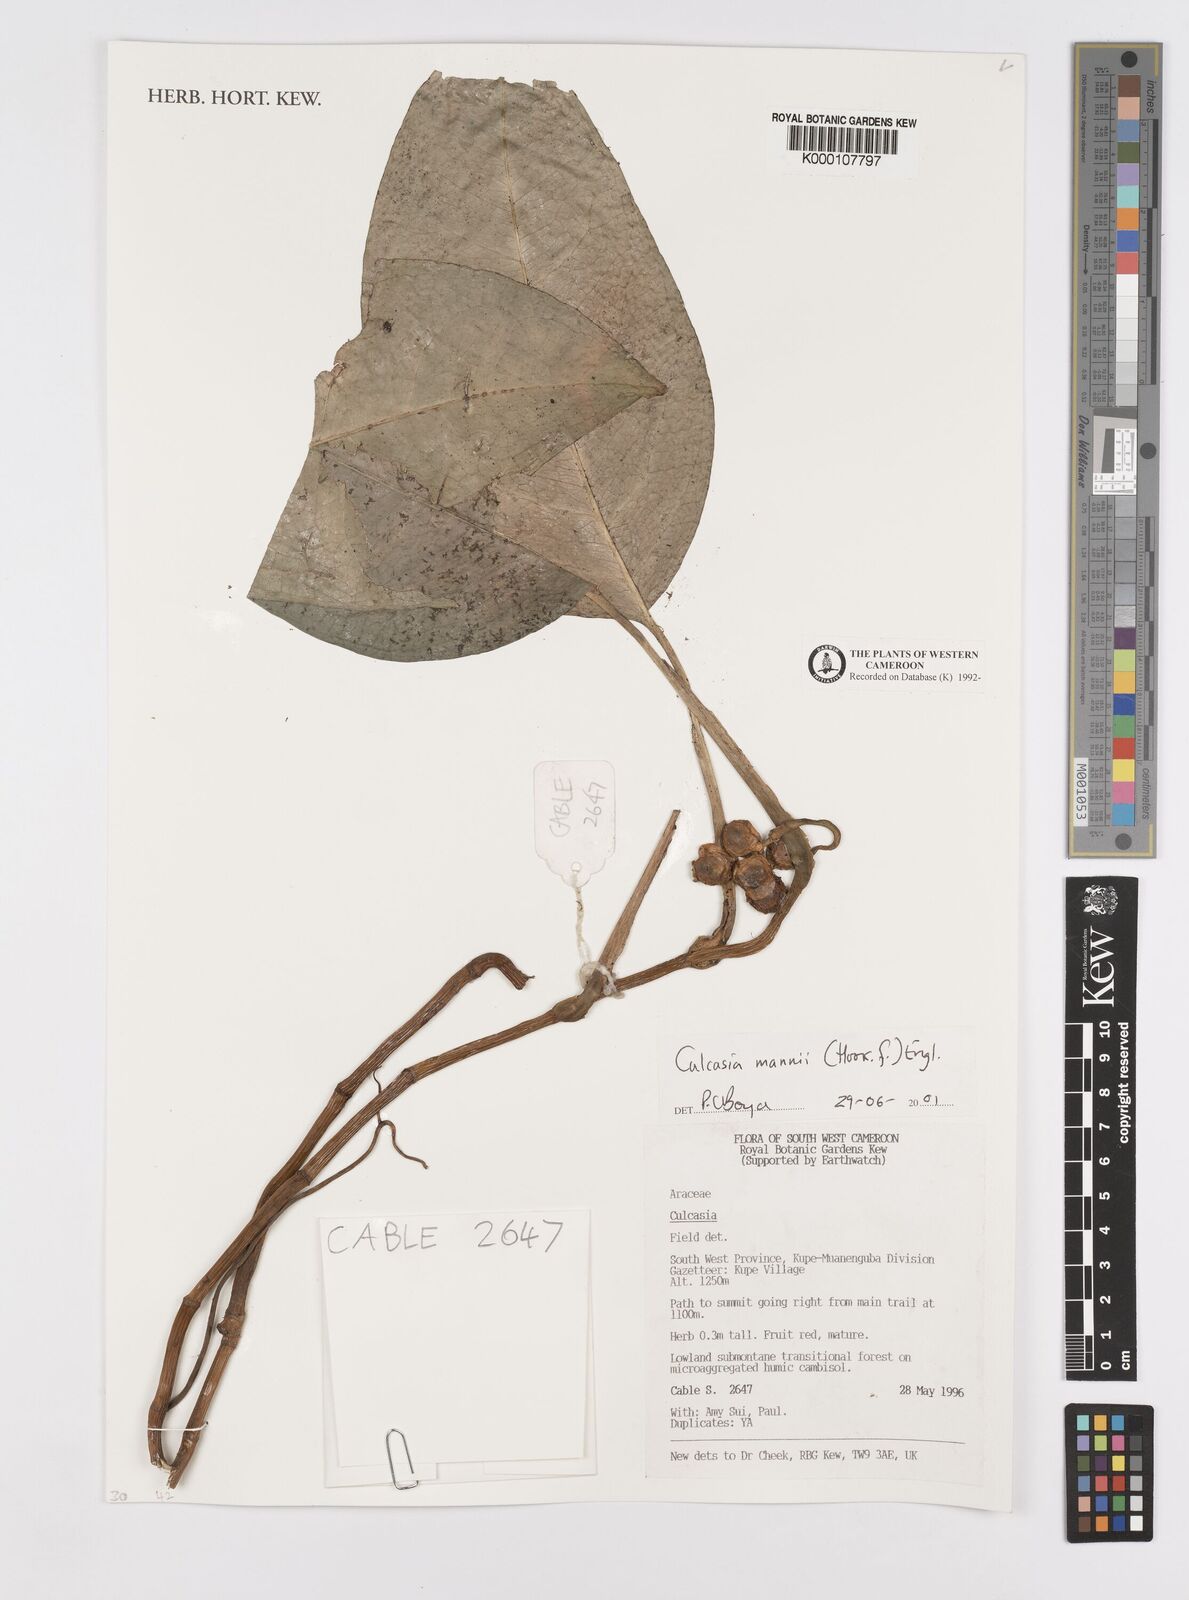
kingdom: Plantae
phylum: Tracheophyta
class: Liliopsida
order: Alismatales
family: Araceae
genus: Culcasia
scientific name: Culcasia mannii
